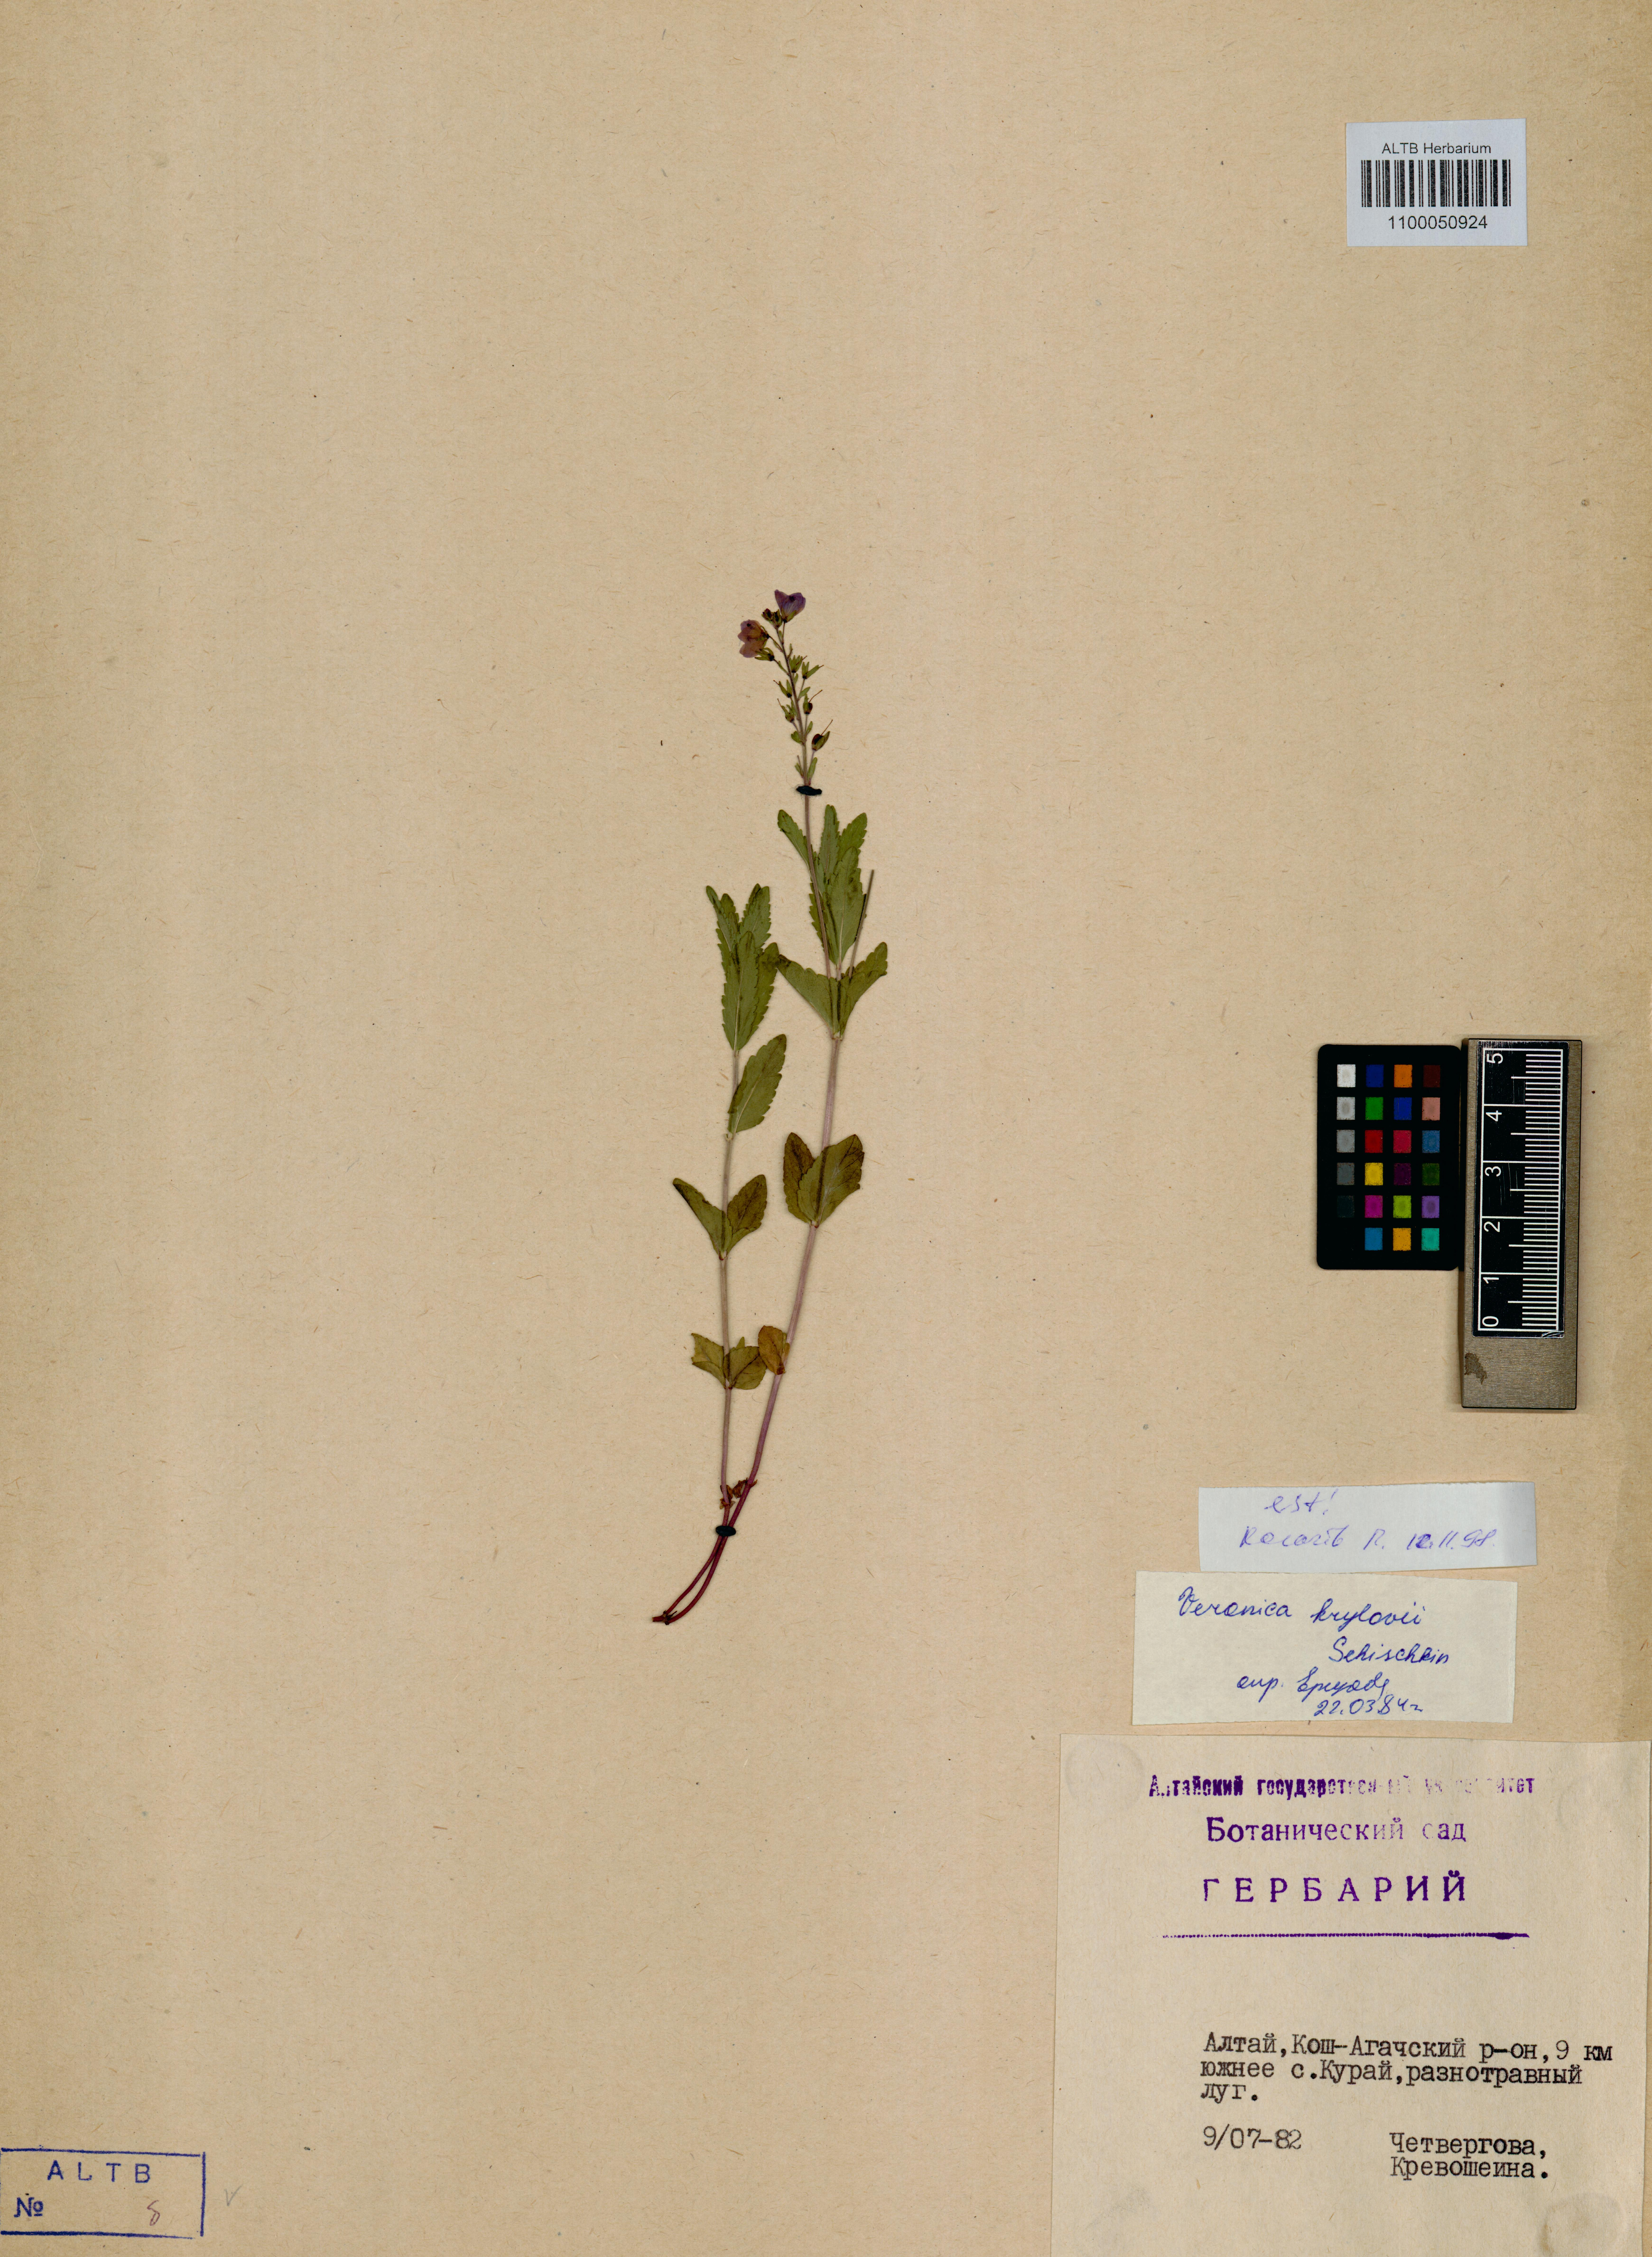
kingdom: Plantae
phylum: Tracheophyta
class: Magnoliopsida
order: Lamiales
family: Plantaginaceae
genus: Veronica
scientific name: Veronica krylovii
